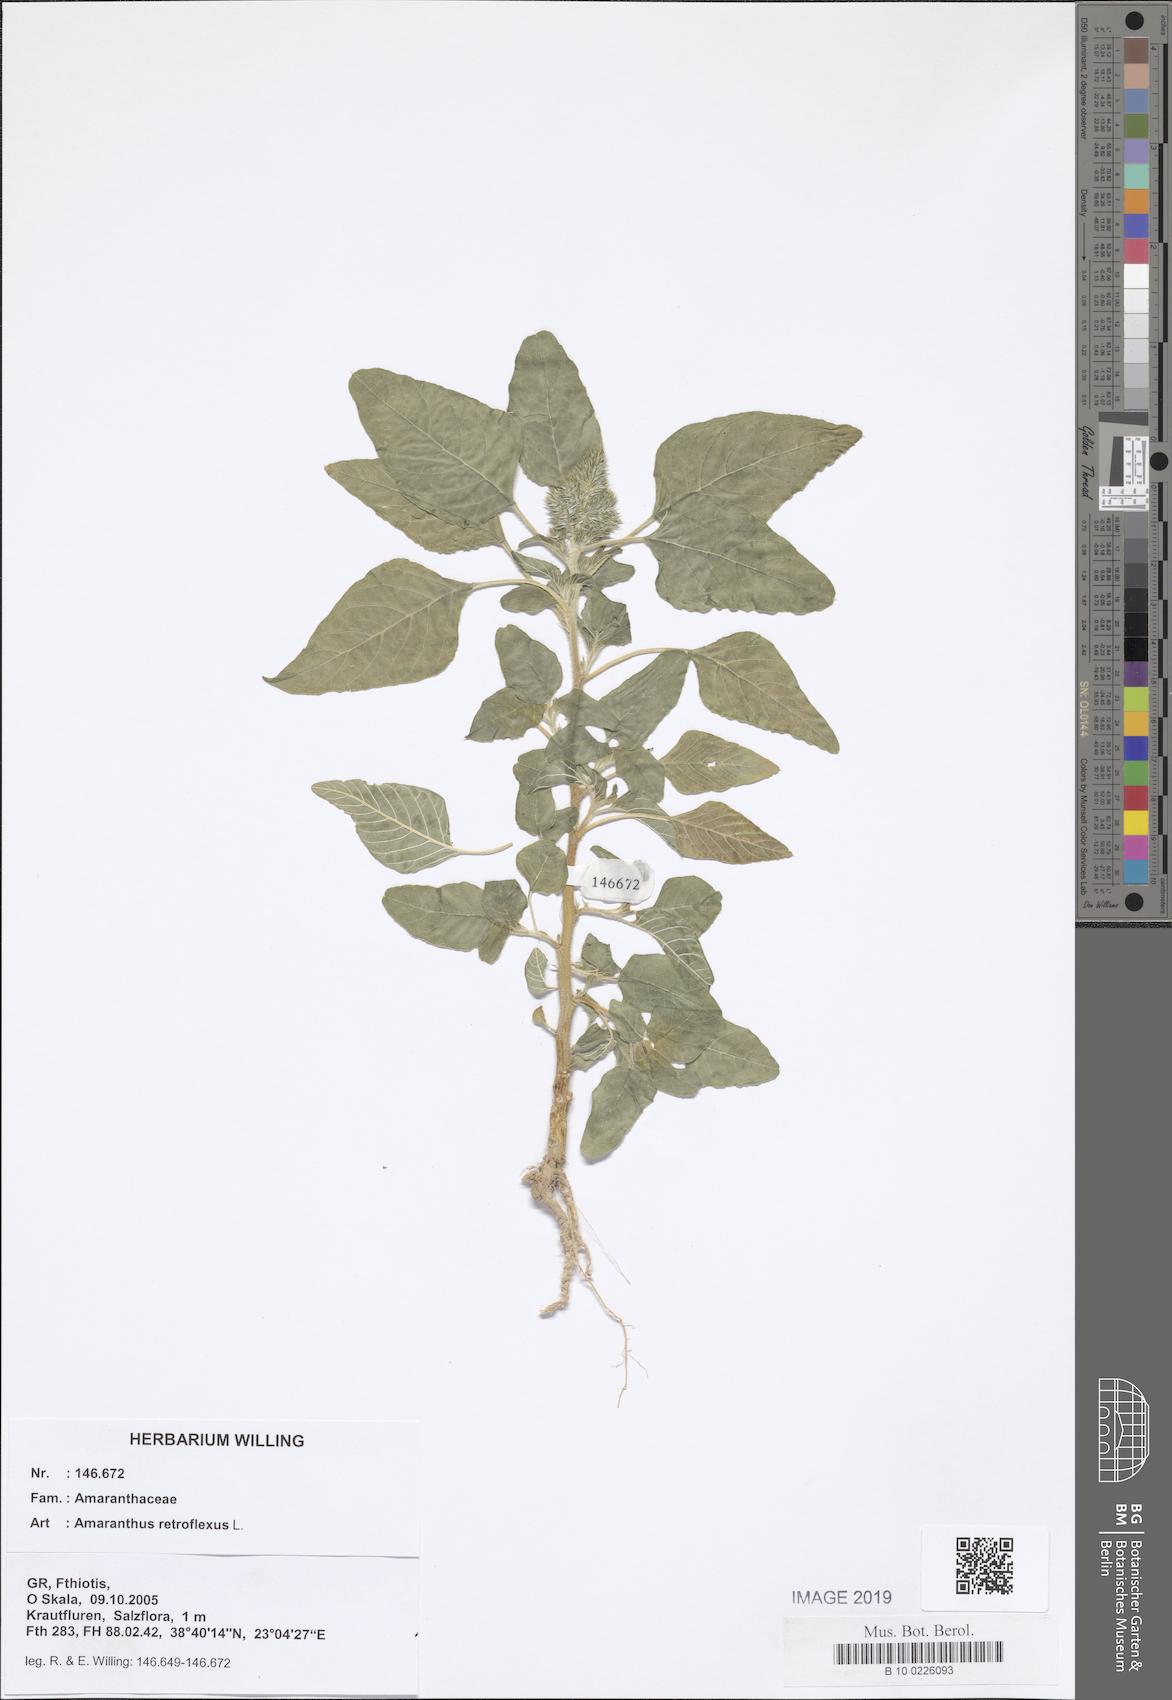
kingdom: Plantae
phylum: Tracheophyta
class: Magnoliopsida
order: Caryophyllales
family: Amaranthaceae
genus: Amaranthus
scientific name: Amaranthus retroflexus
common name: Redroot amaranth
